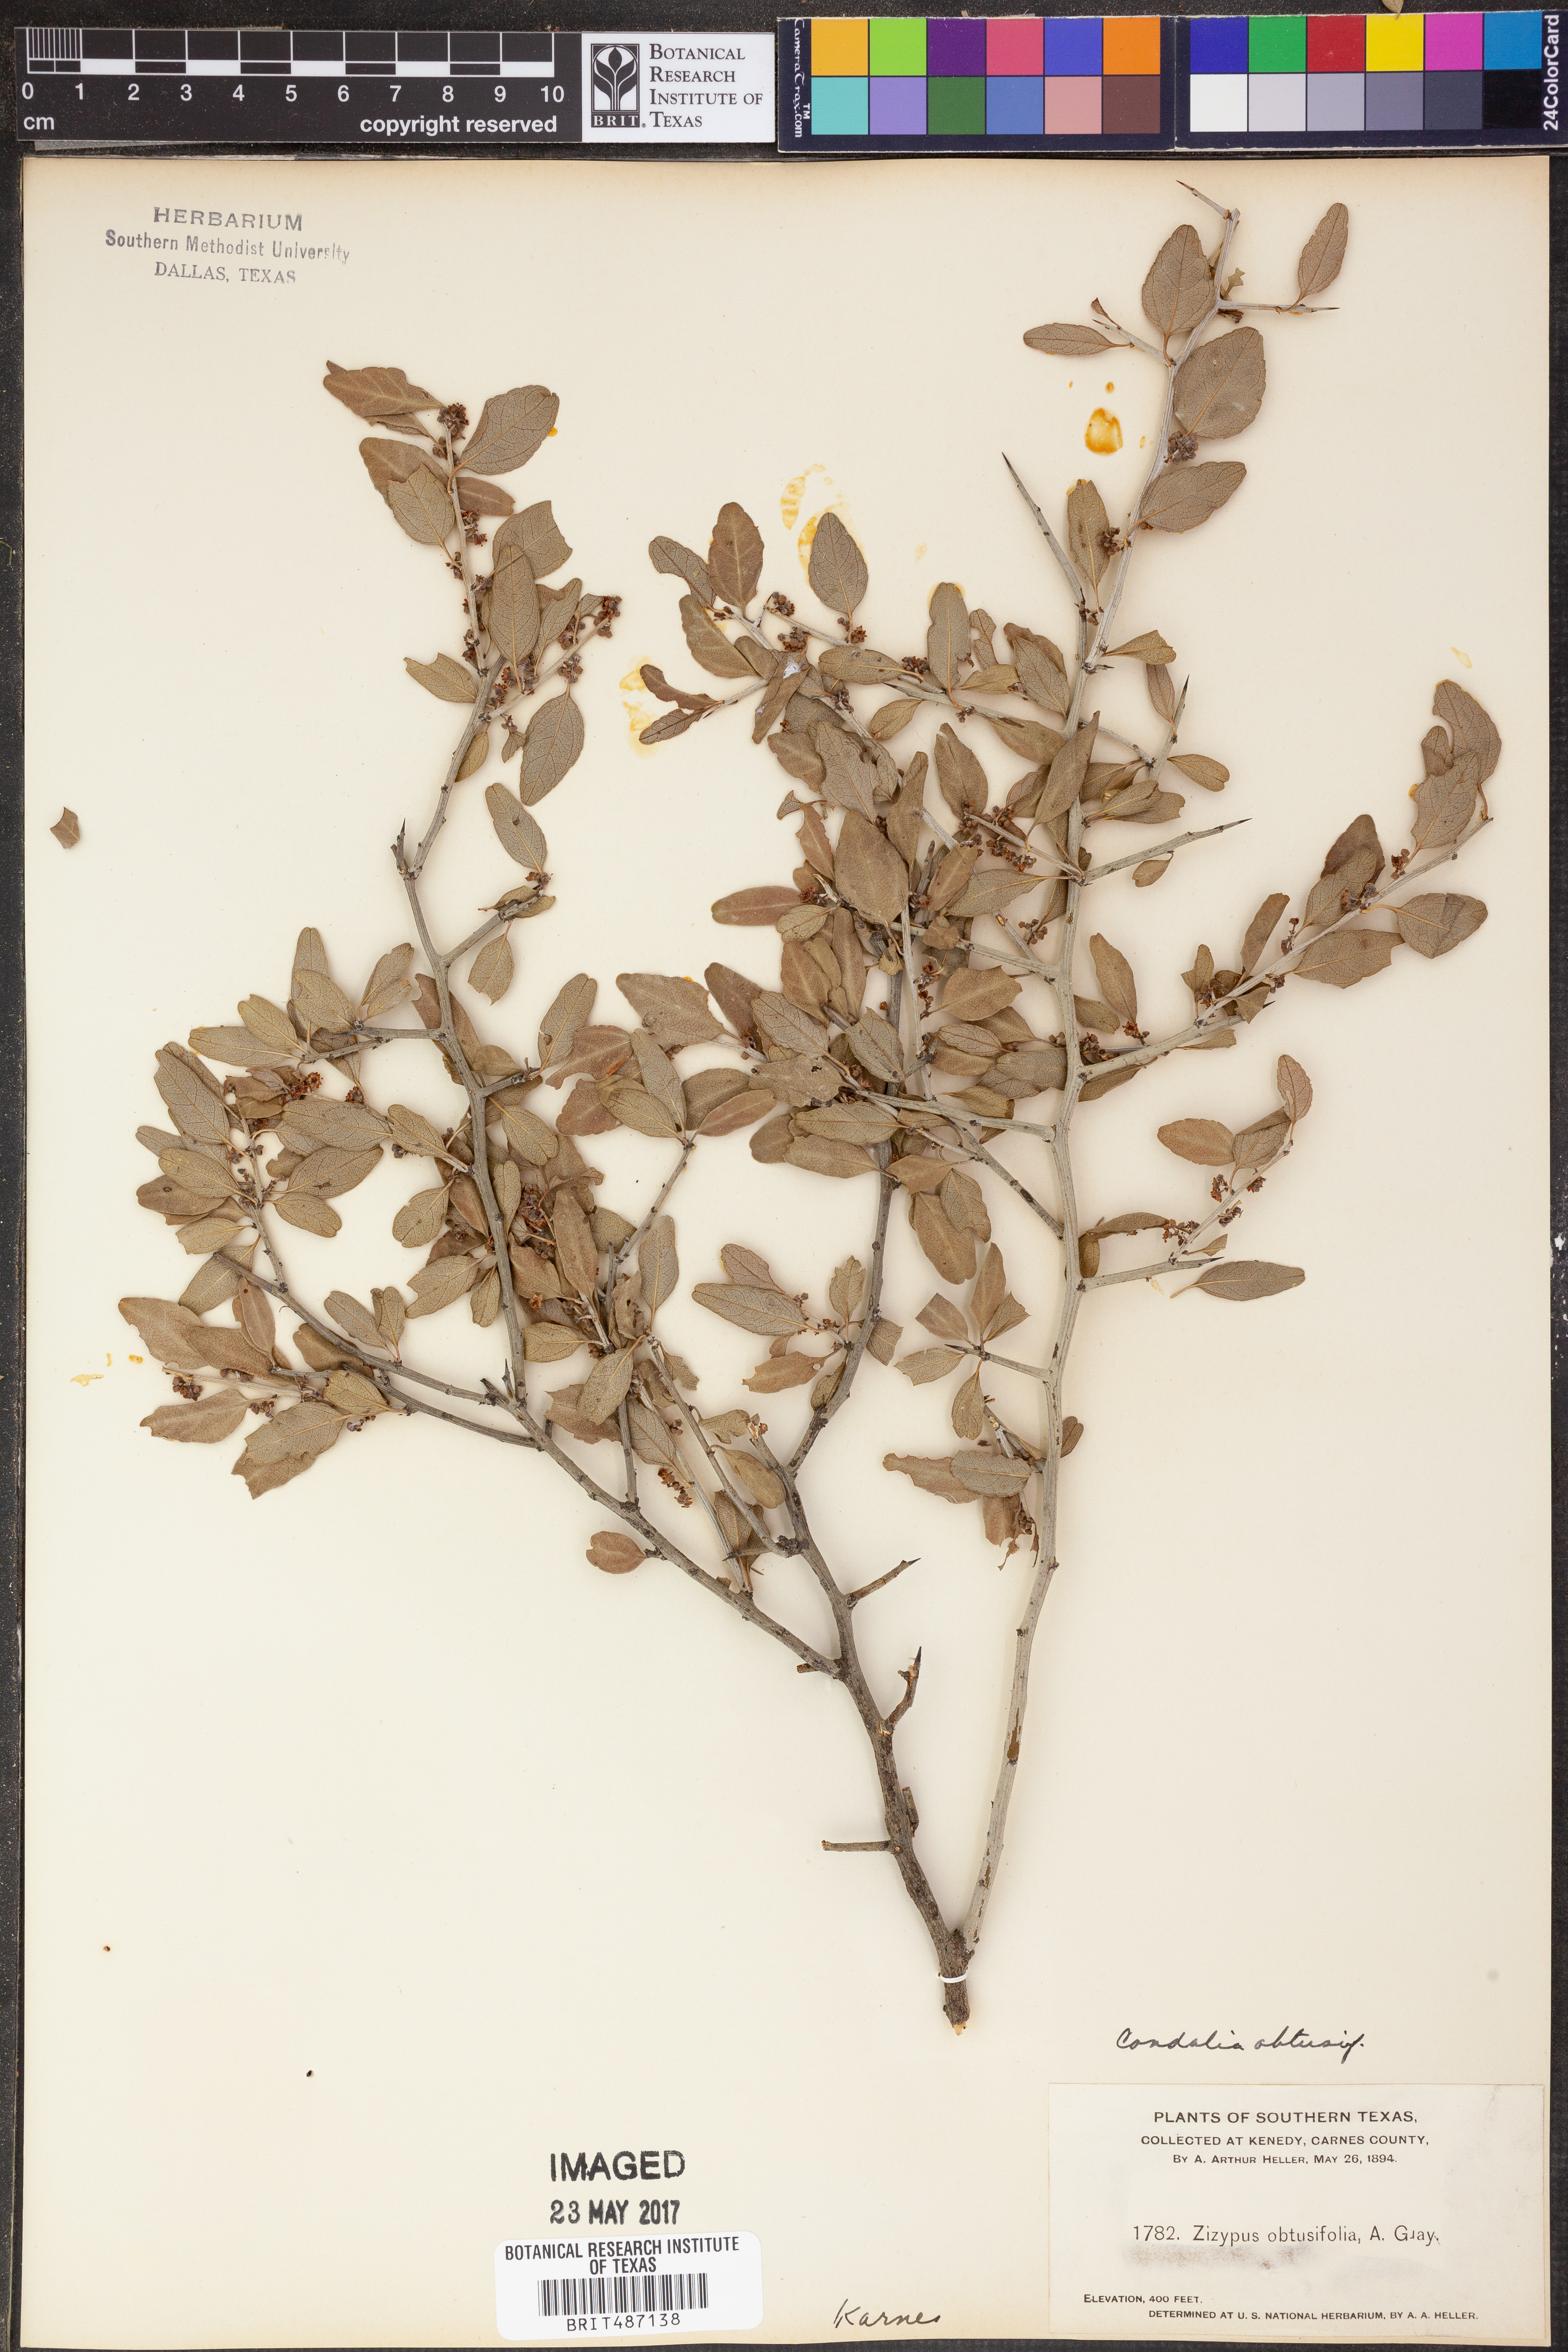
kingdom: Plantae
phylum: Tracheophyta
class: Magnoliopsida
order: Rosales
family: Rhamnaceae
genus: Sarcomphalus
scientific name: Sarcomphalus obtusifolius
